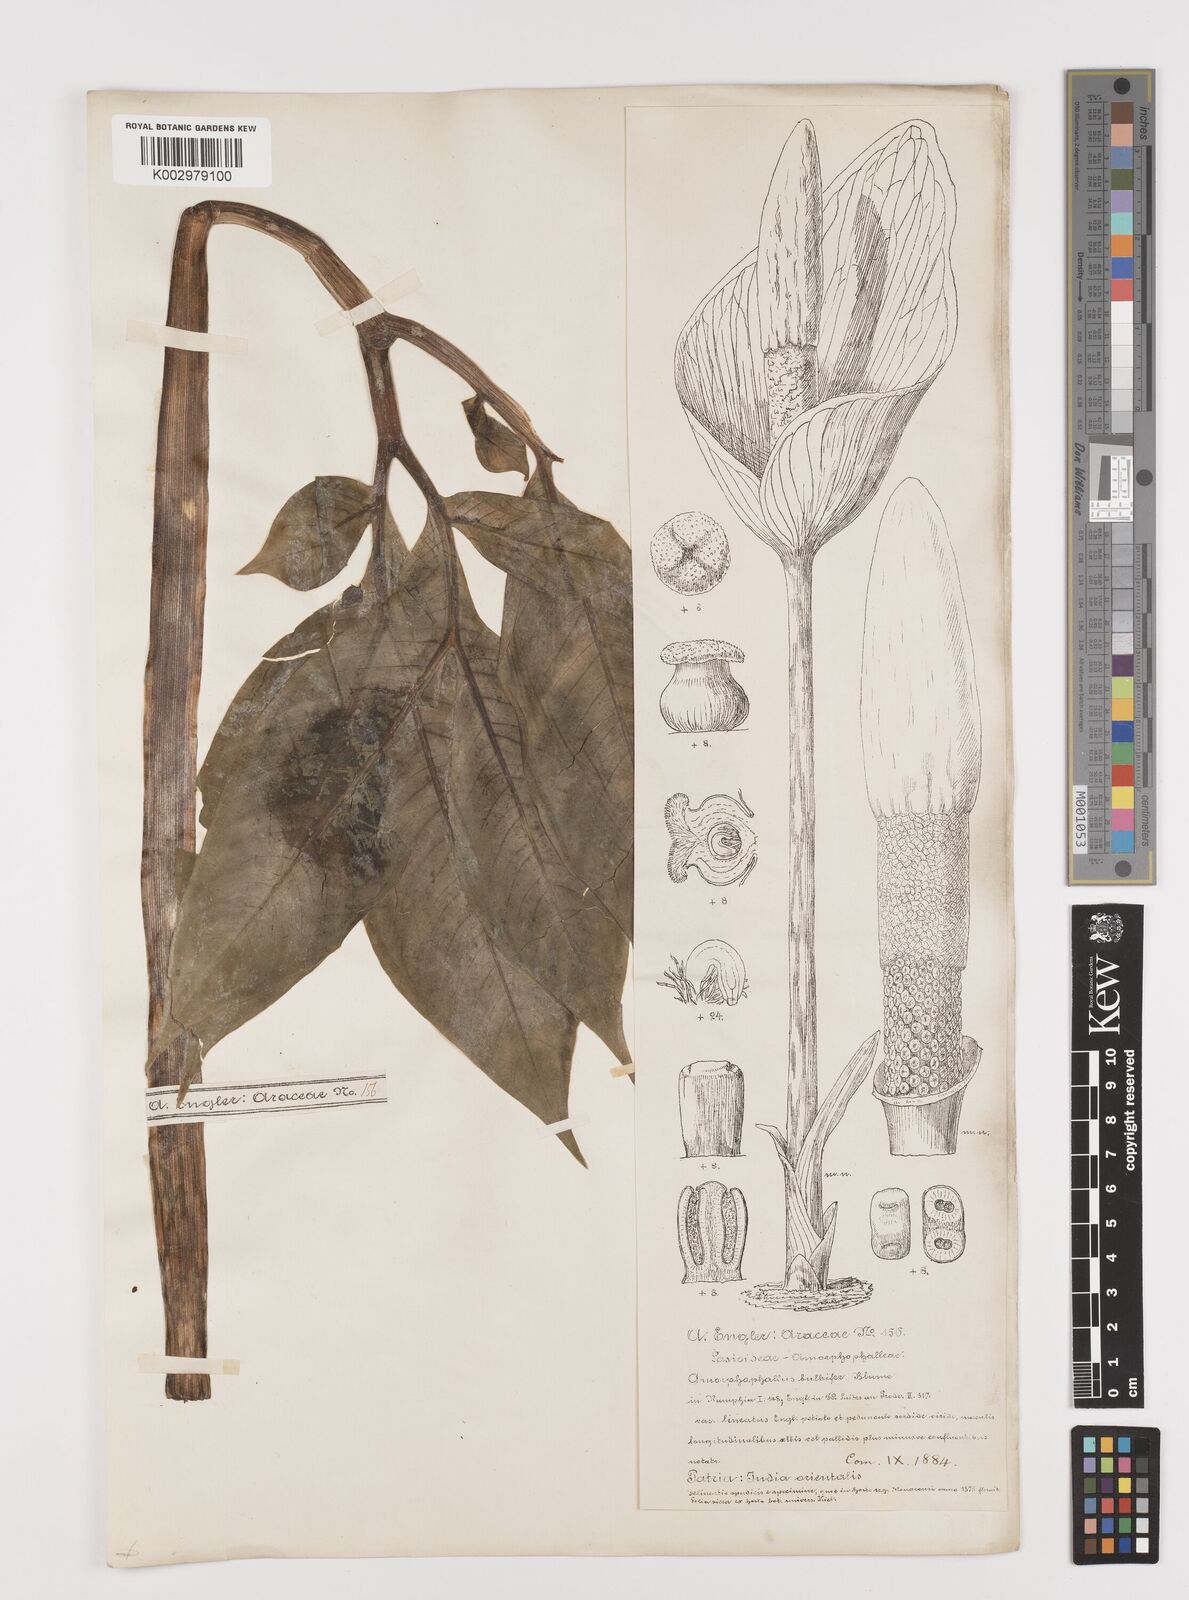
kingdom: Plantae
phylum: Tracheophyta
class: Liliopsida
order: Alismatales
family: Araceae
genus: Amorphophallus
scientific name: Amorphophallus bulbifer
